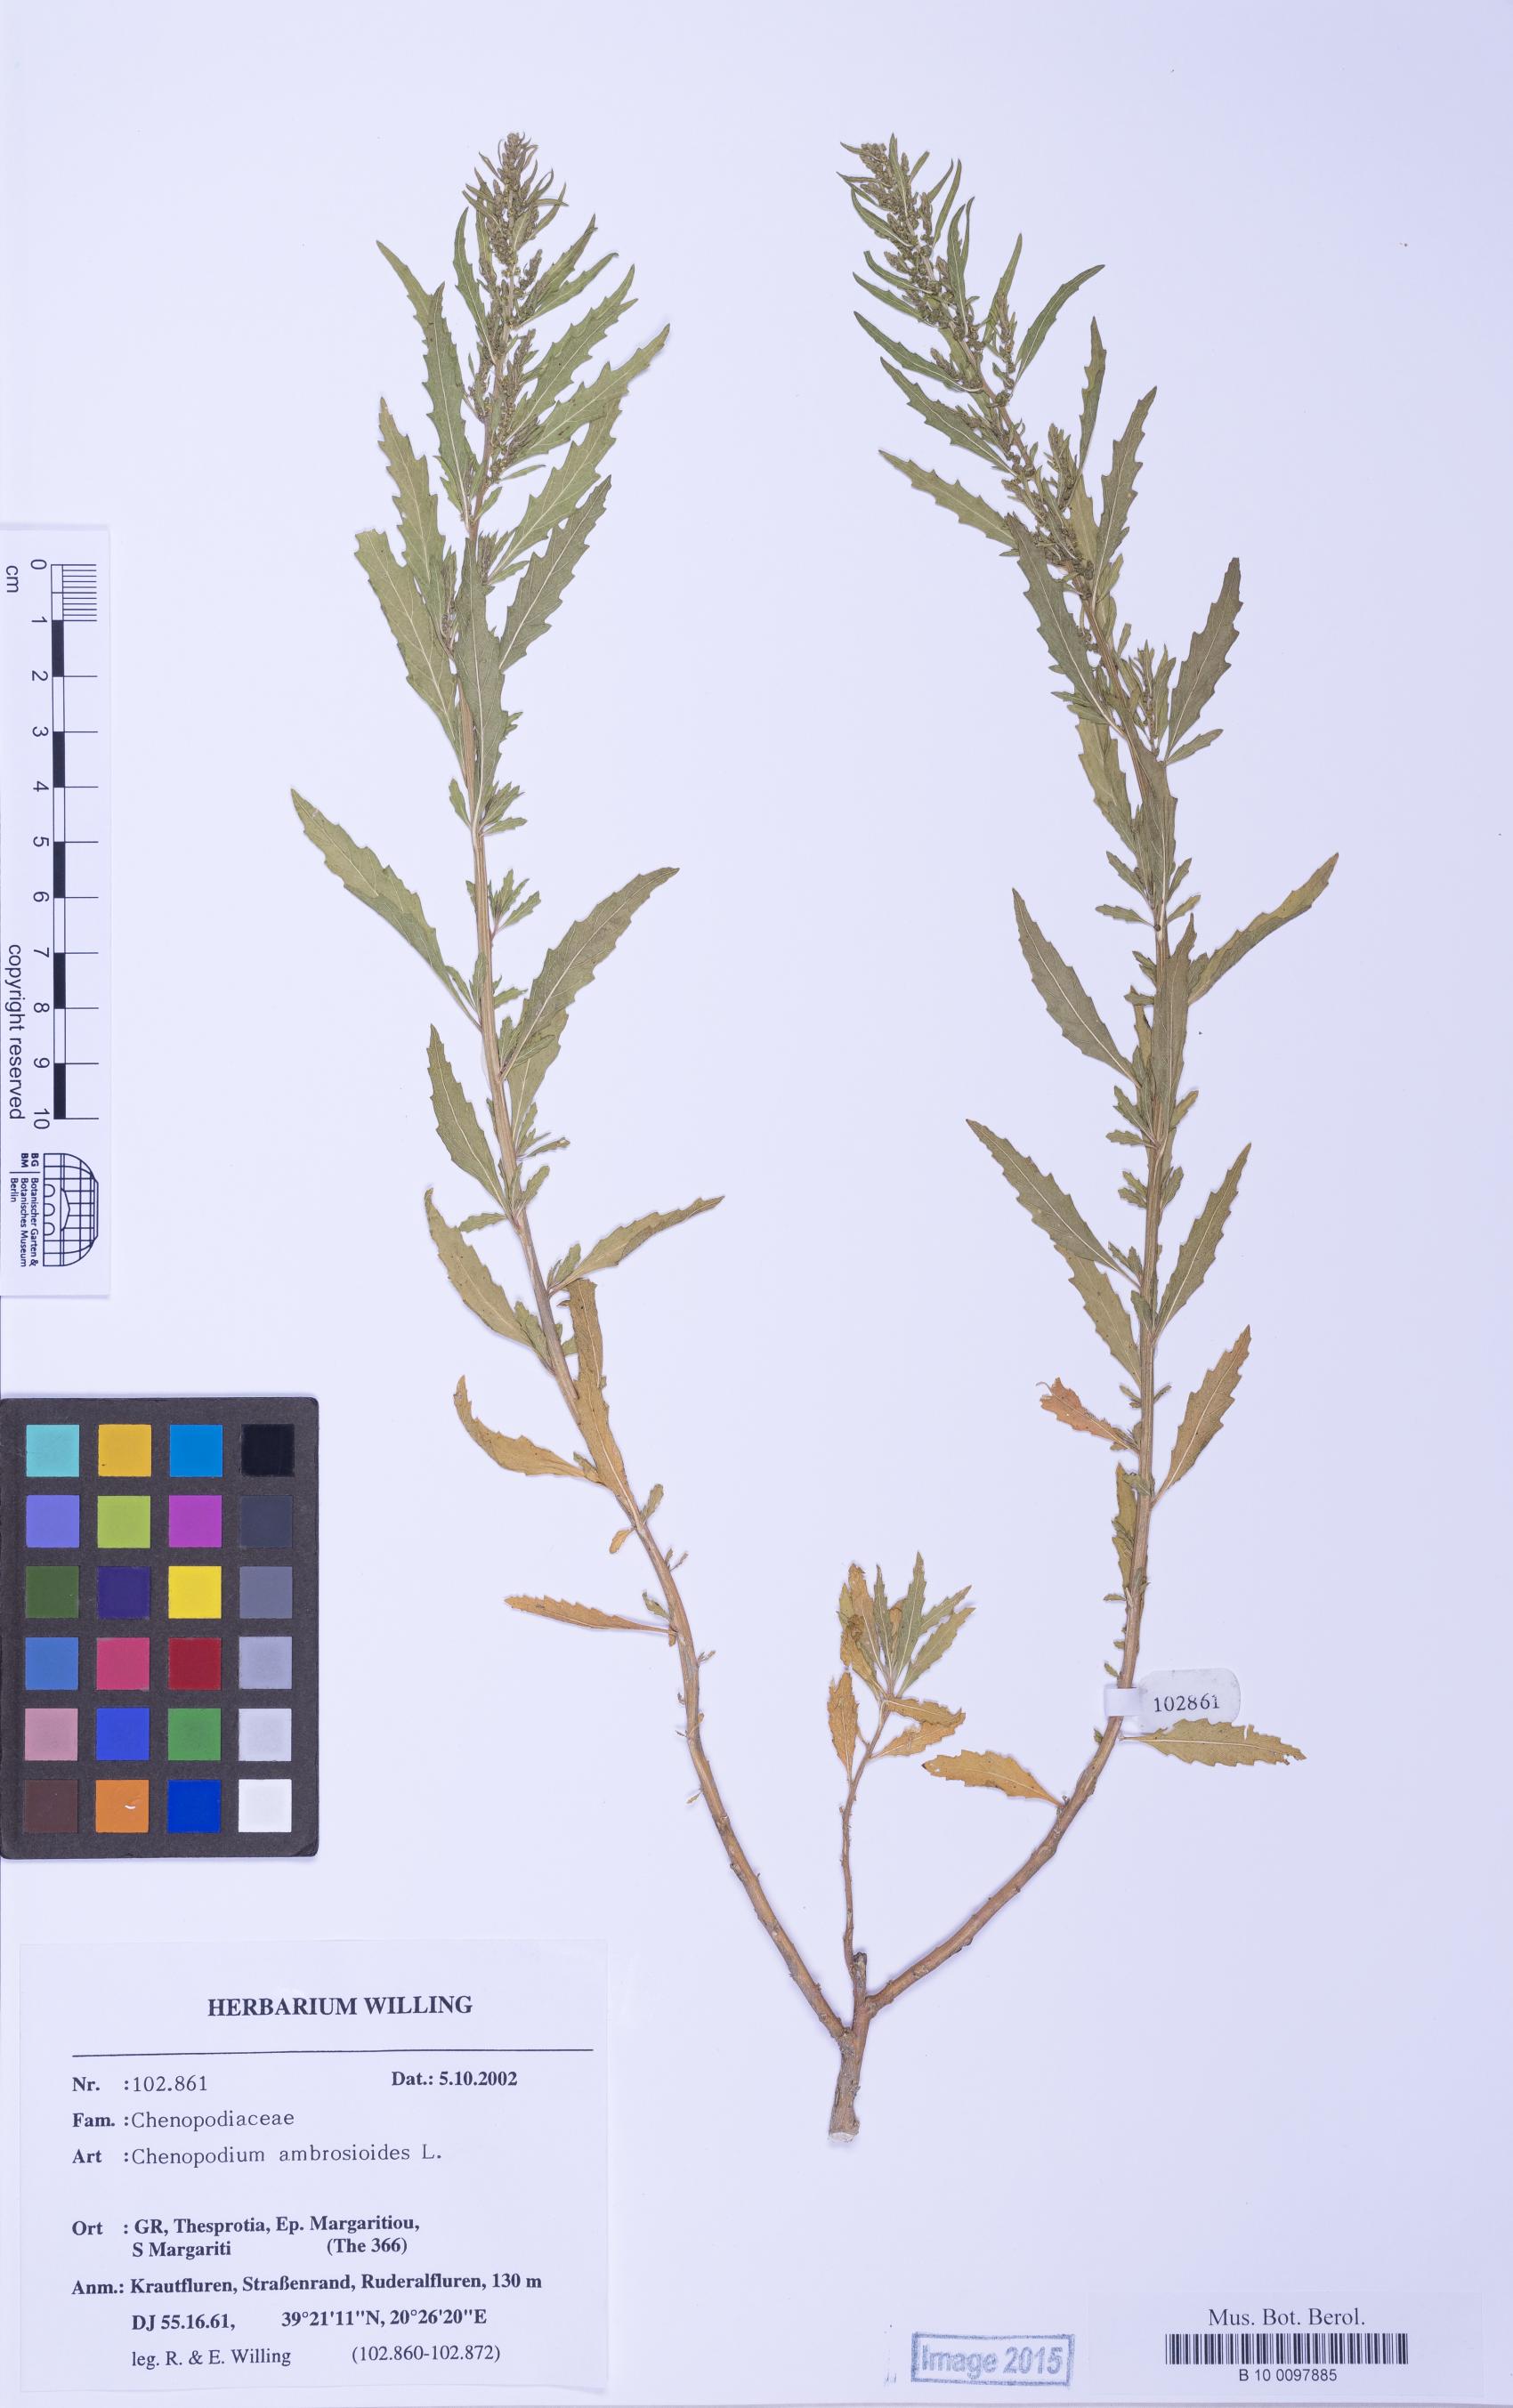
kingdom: Plantae
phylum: Tracheophyta
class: Magnoliopsida
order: Caryophyllales
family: Amaranthaceae
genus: Dysphania
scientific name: Dysphania ambrosioides
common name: Wormseed
